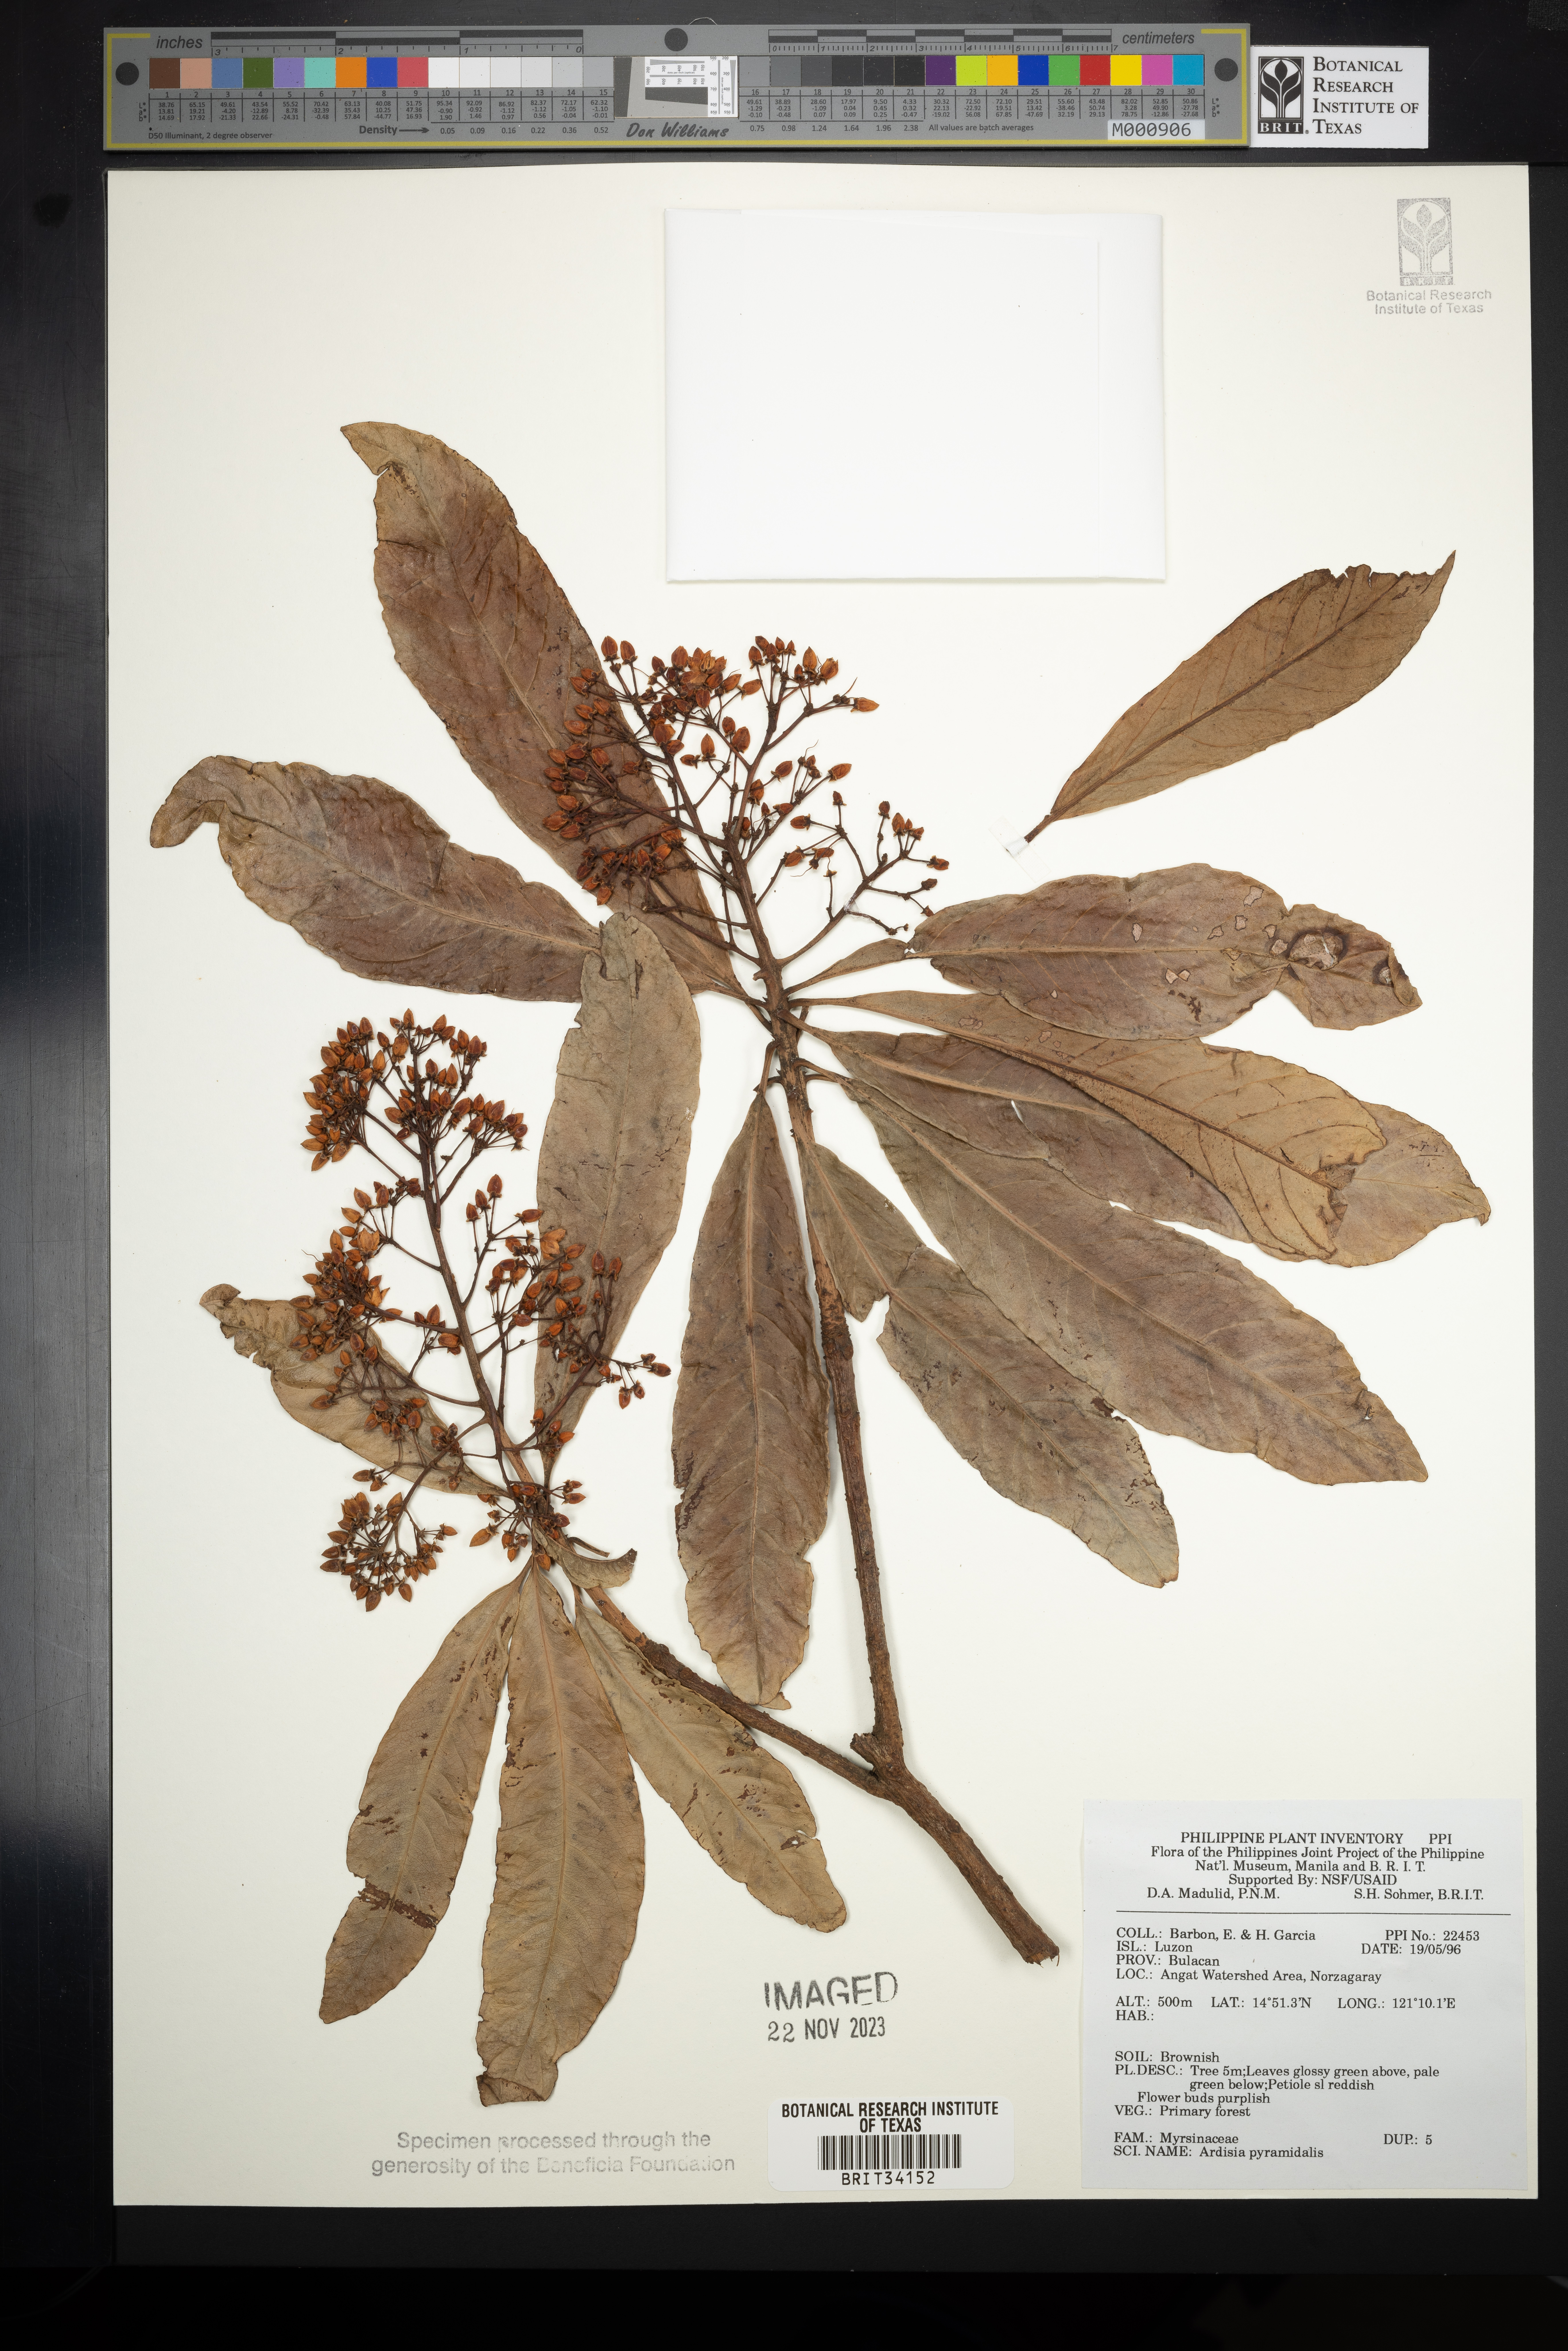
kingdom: Plantae
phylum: Tracheophyta
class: Magnoliopsida
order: Ericales
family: Primulaceae
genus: Ardisia
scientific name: Ardisia pyramidalis
